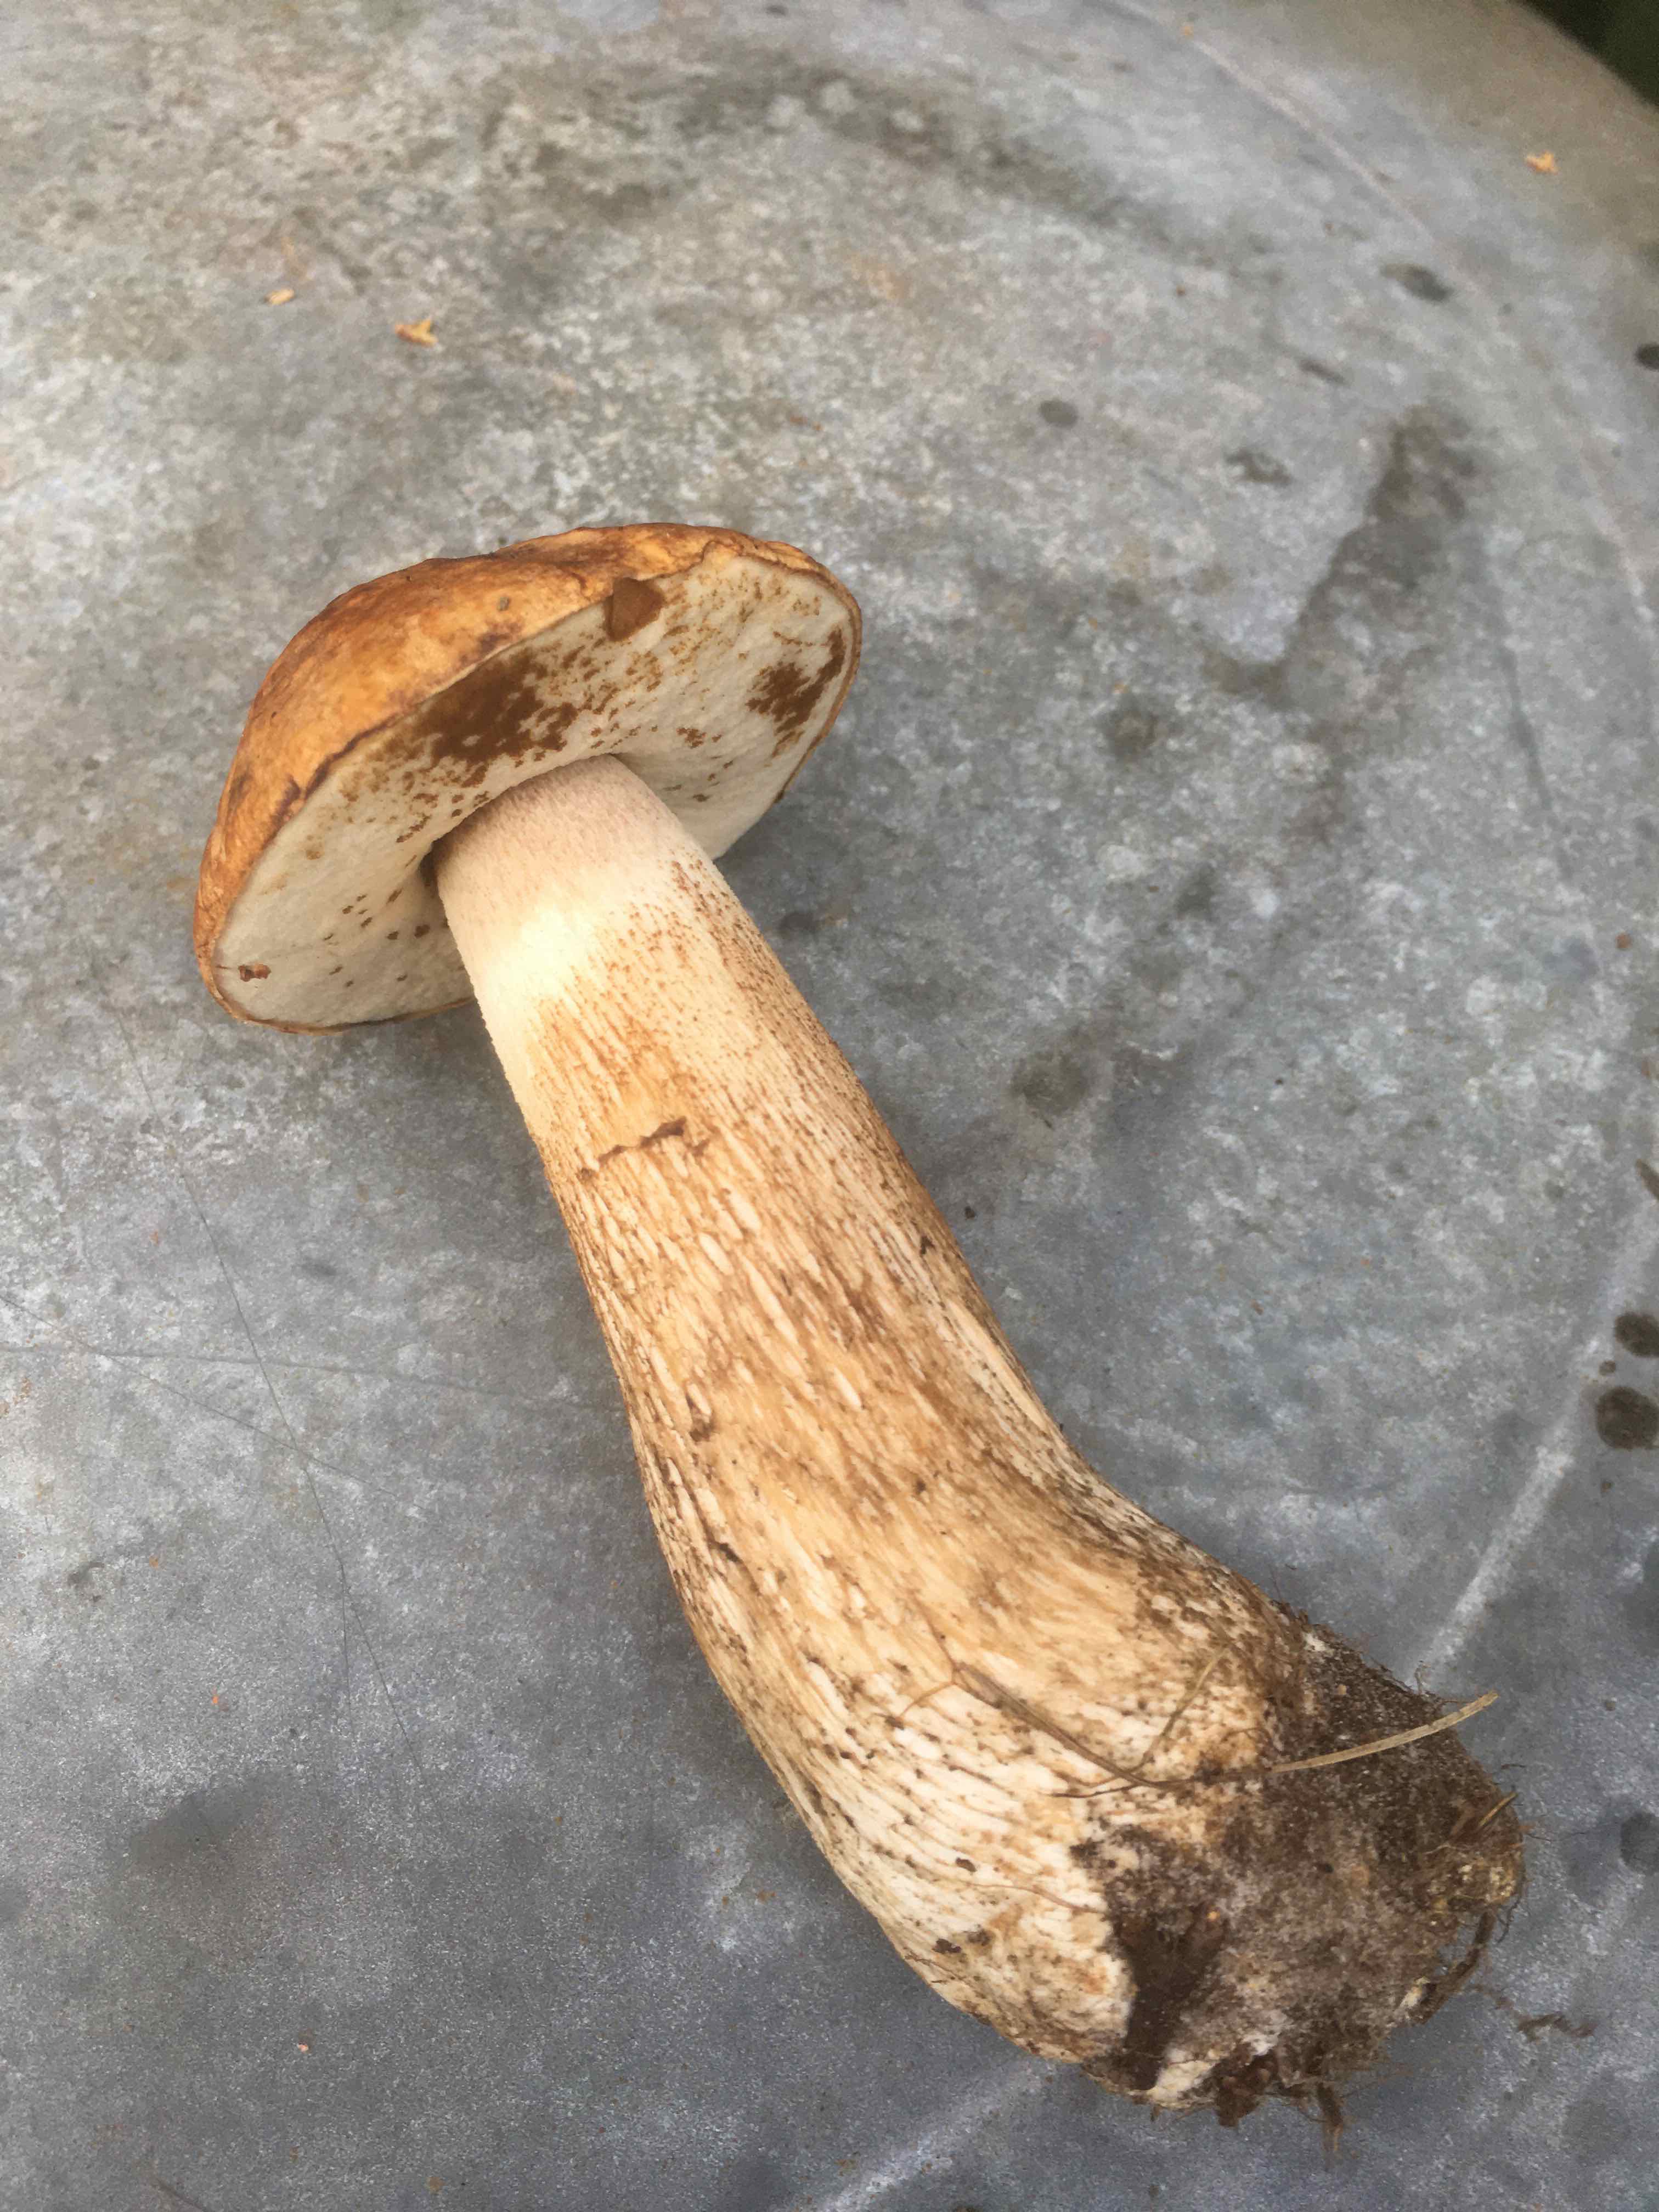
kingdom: Fungi
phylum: Basidiomycota
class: Agaricomycetes
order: Boletales
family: Boletaceae
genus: Leccinum
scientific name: Leccinum scabrum
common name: brun skælrørhat
